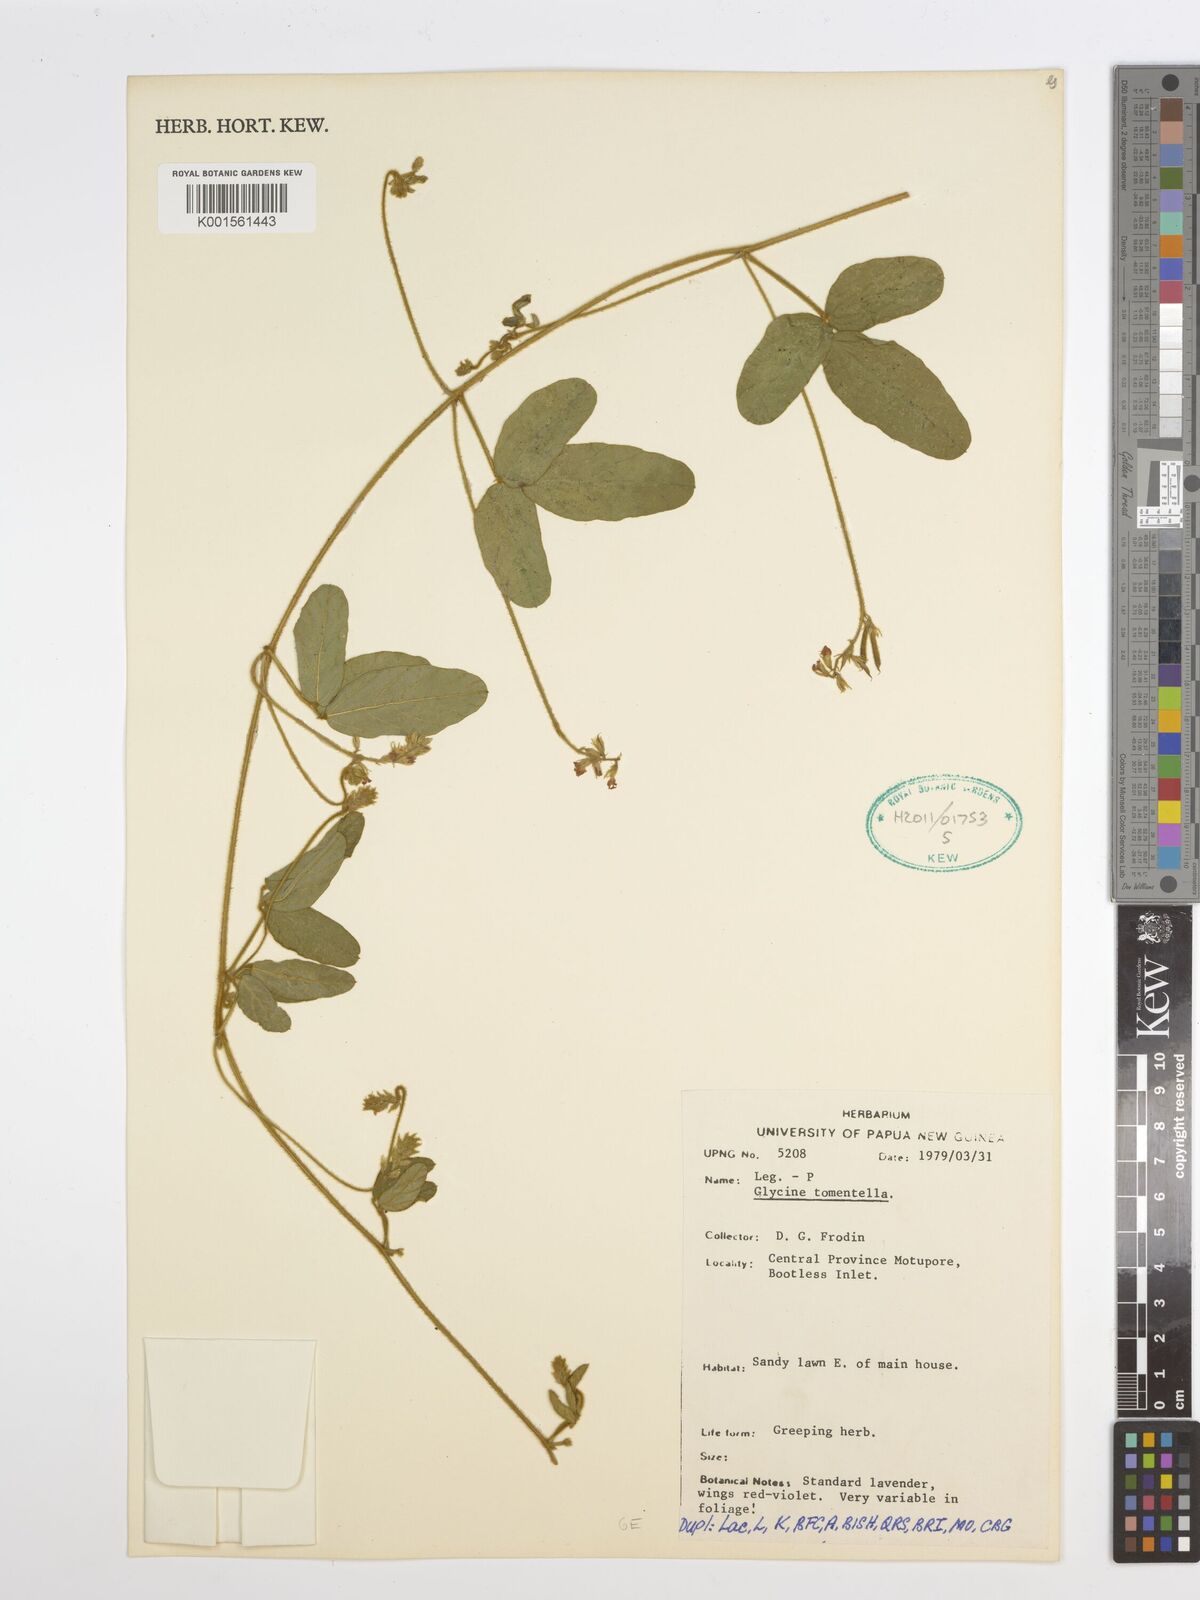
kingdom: Plantae
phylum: Tracheophyta
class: Magnoliopsida
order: Fabales
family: Fabaceae
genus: Glycine
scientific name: Glycine tomentella
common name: Hairy glycine
